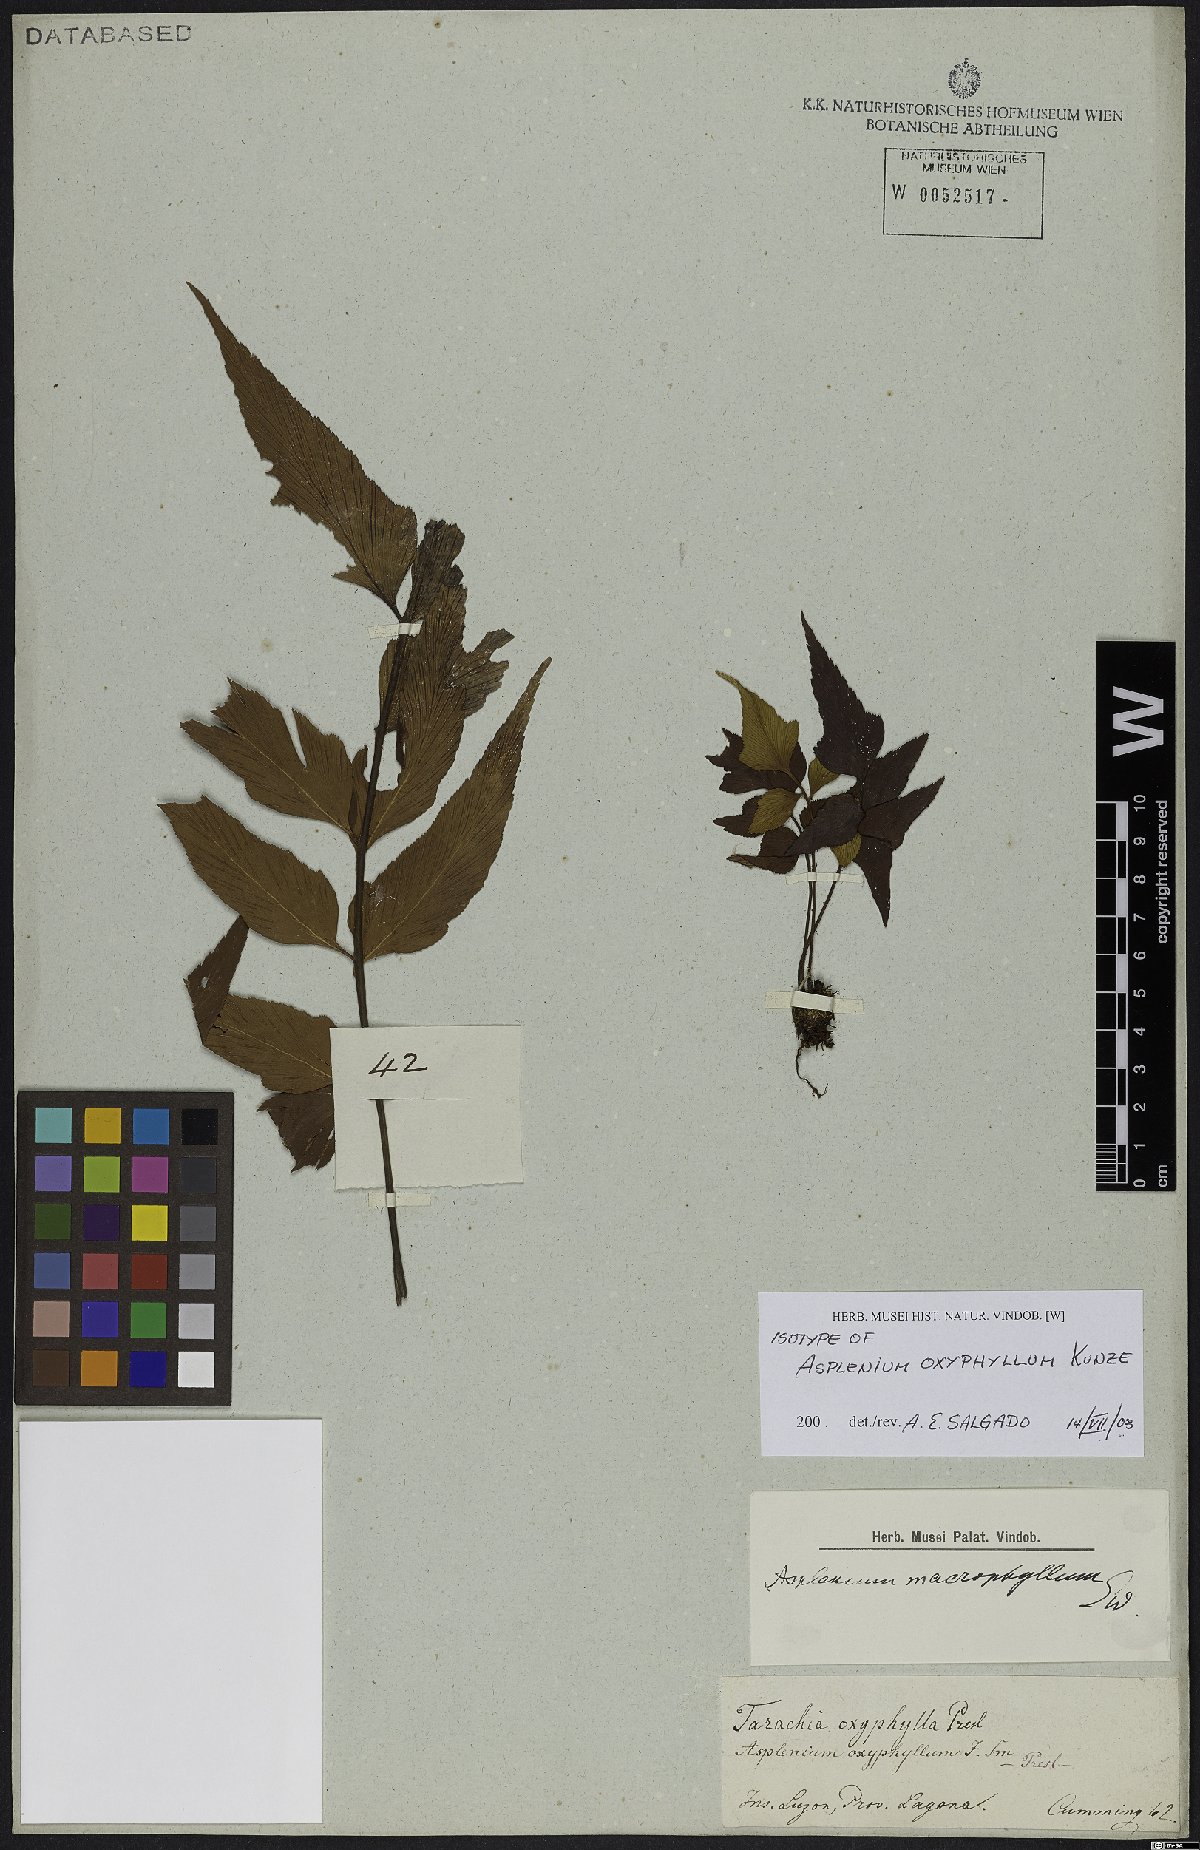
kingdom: Plantae
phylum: Tracheophyta
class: Polypodiopsida
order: Polypodiales
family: Aspleniaceae
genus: Asplenium
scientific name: Asplenium macrophyllum
